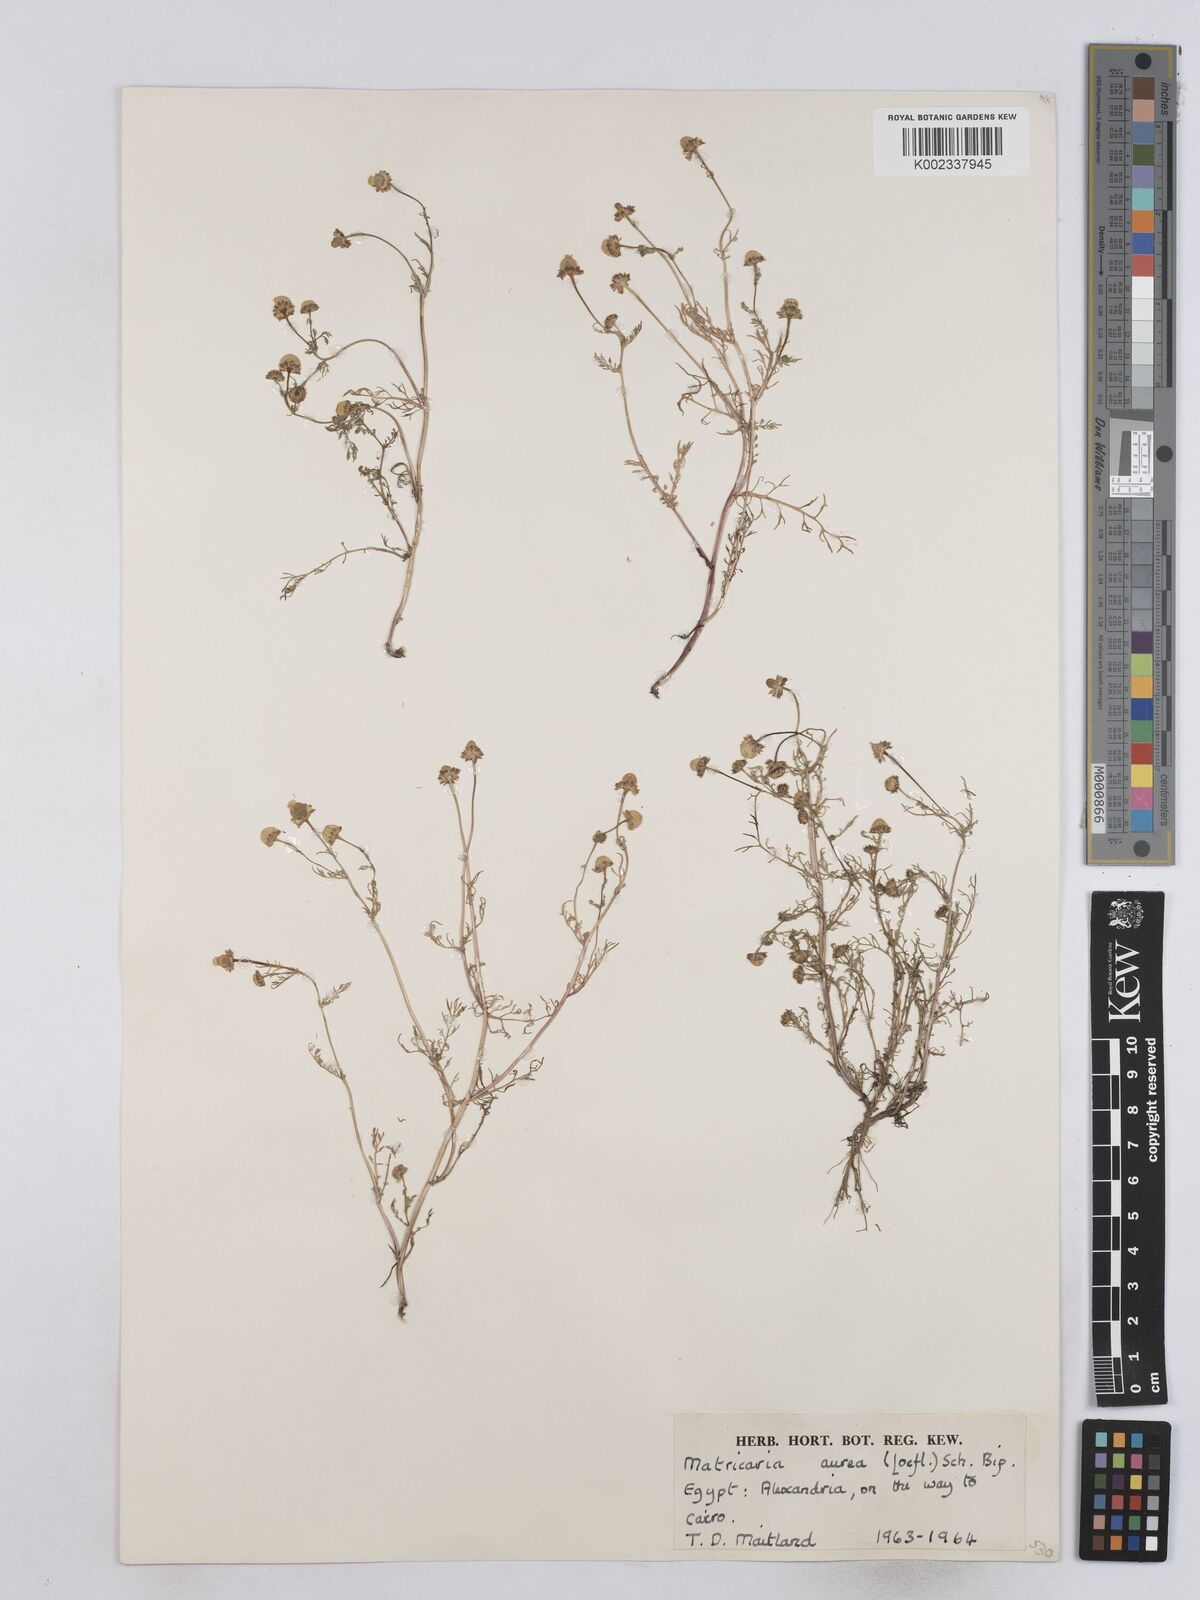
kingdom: Plantae
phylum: Tracheophyta
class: Magnoliopsida
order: Asterales
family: Asteraceae
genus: Matricaria
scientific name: Matricaria
